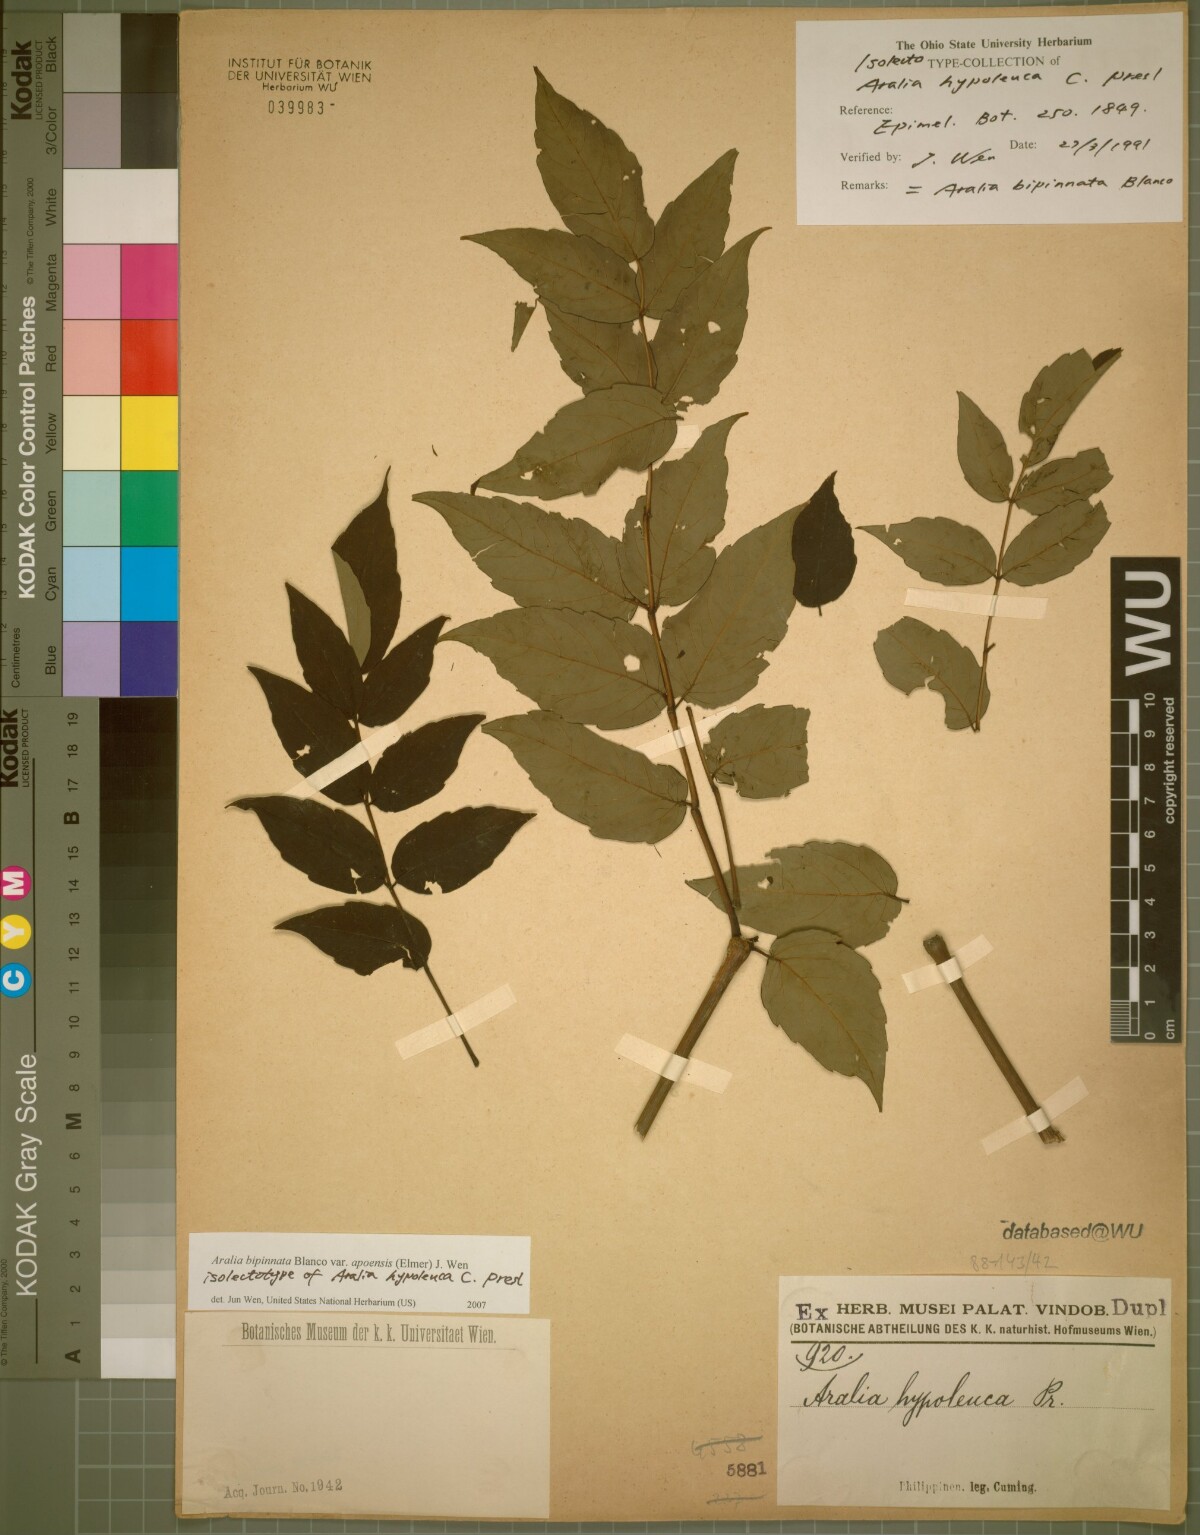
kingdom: Plantae
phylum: Tracheophyta
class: Magnoliopsida
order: Apiales
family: Araliaceae
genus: Aralia
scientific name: Aralia bipinnata
